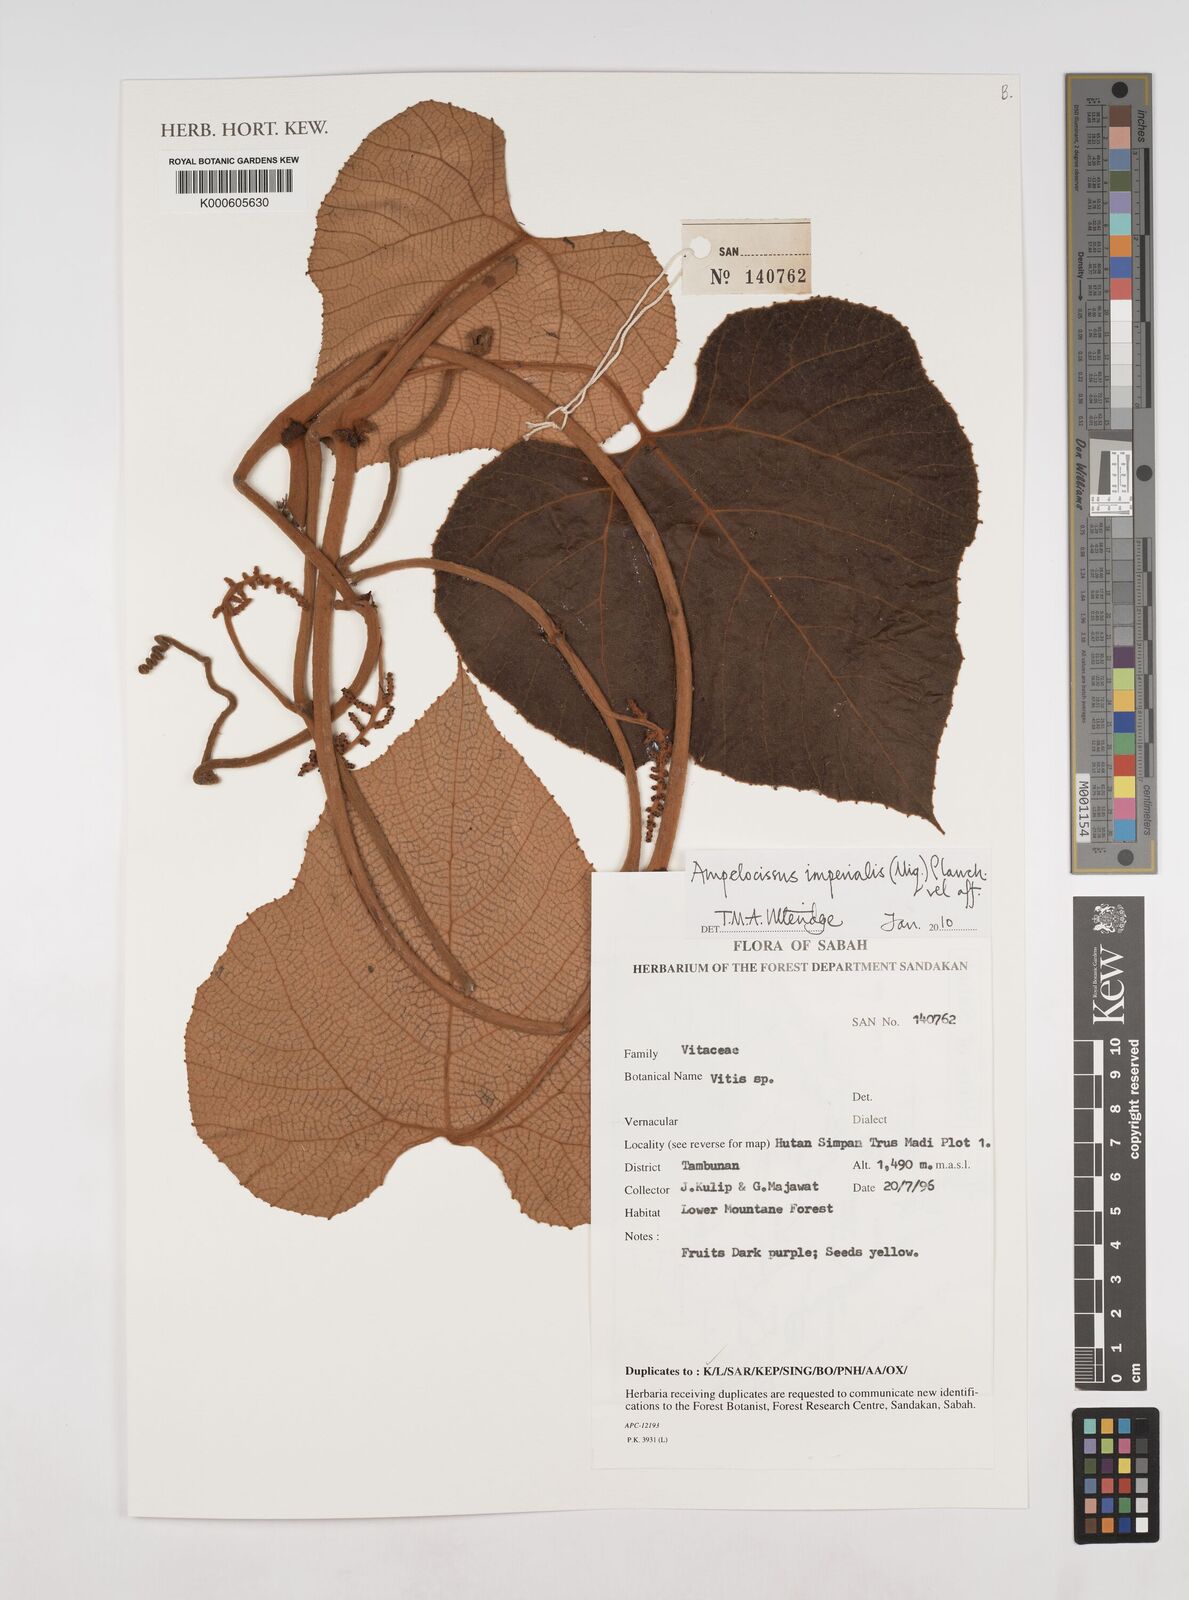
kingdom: Plantae
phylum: Tracheophyta
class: Magnoliopsida
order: Vitales
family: Vitaceae
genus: Ampelocissus
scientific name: Ampelocissus imperialis
